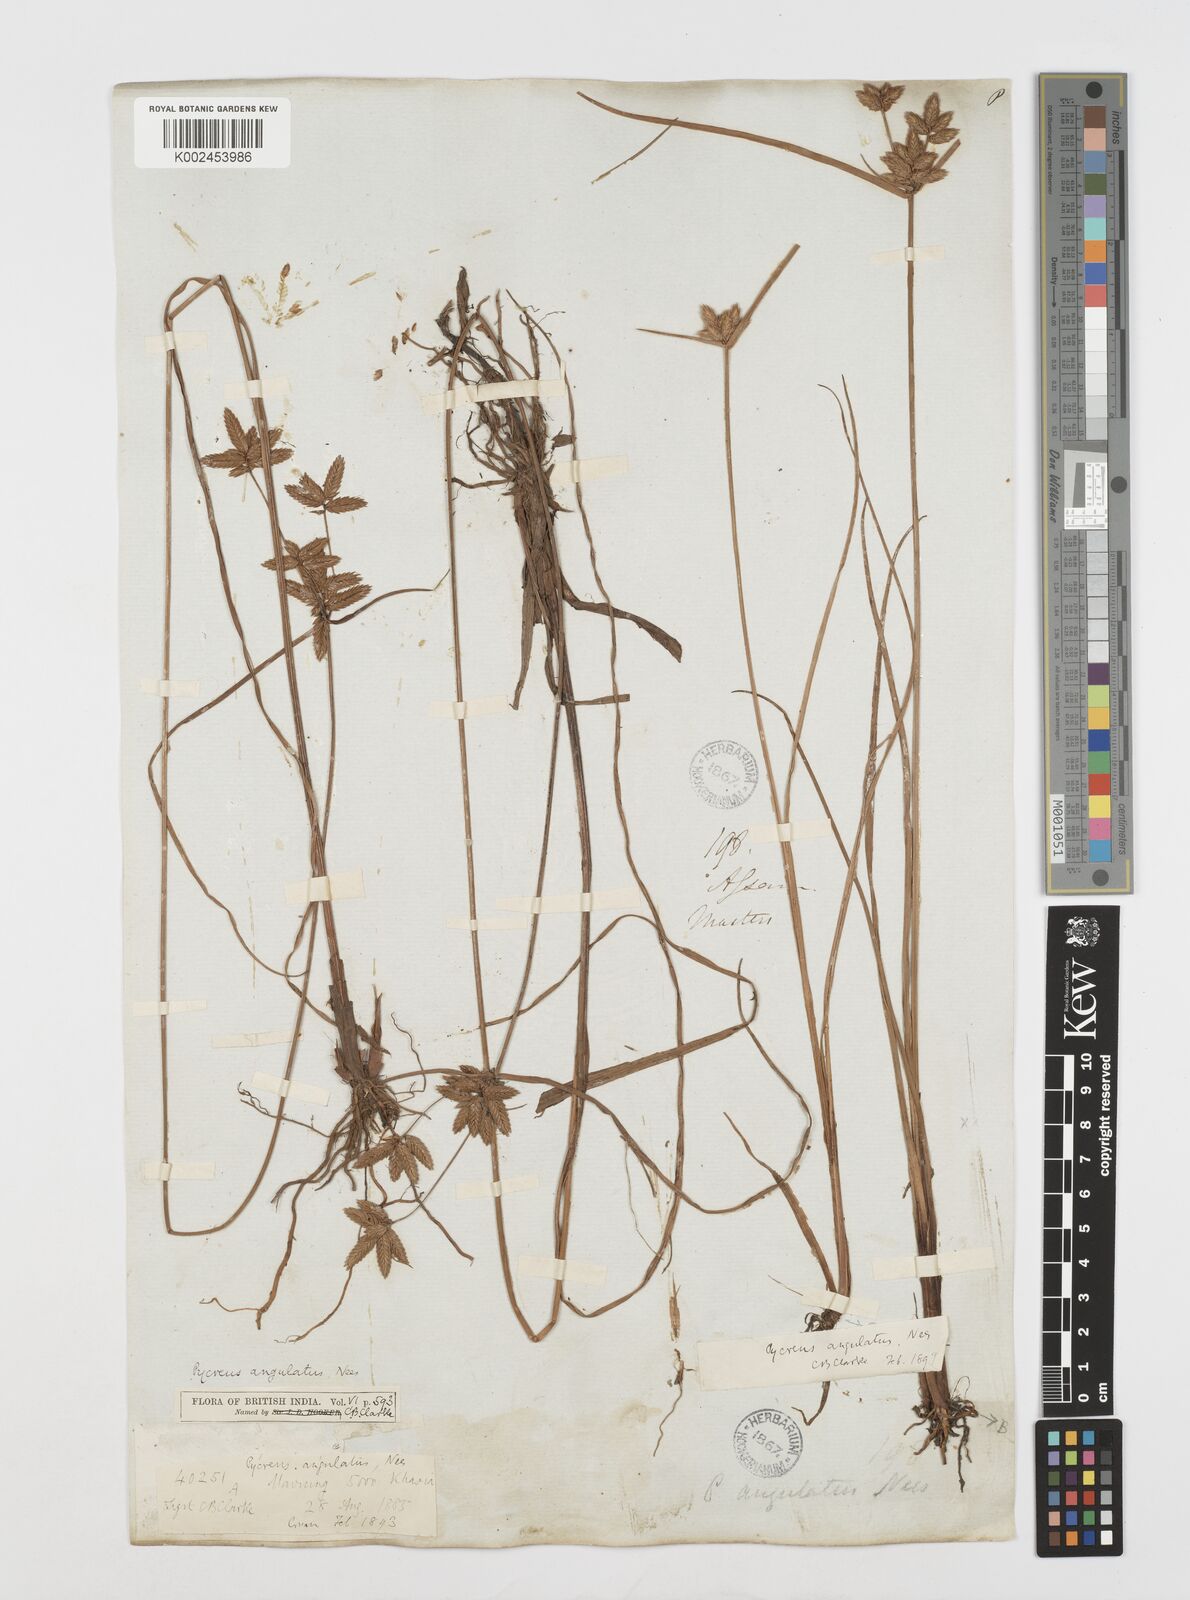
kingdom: Plantae
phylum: Tracheophyta
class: Liliopsida
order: Poales
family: Cyperaceae
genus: Cyperus
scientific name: Cyperus unioloides
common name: Uniola flatsedge
